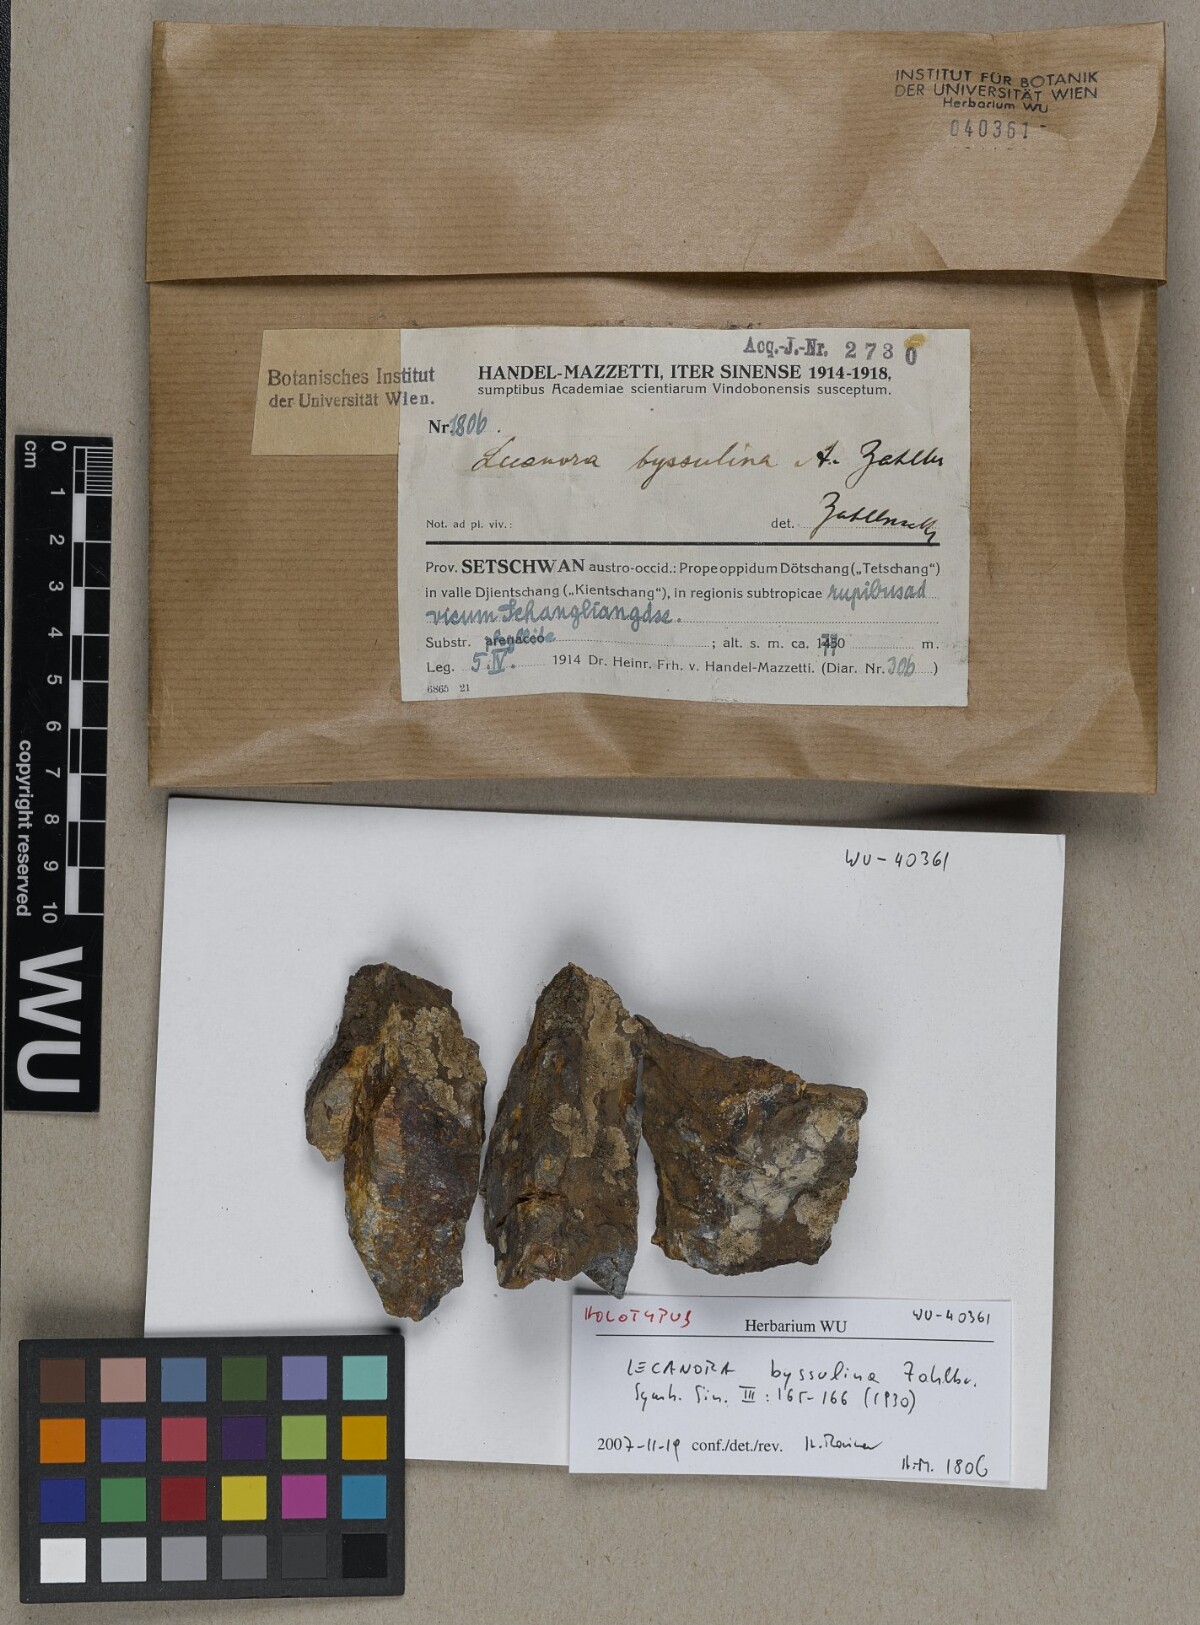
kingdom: Fungi
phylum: Ascomycota
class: Lecanoromycetes
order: Lecanorales
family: Lecanoraceae
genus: Lecanora
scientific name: Lecanora byssulina
